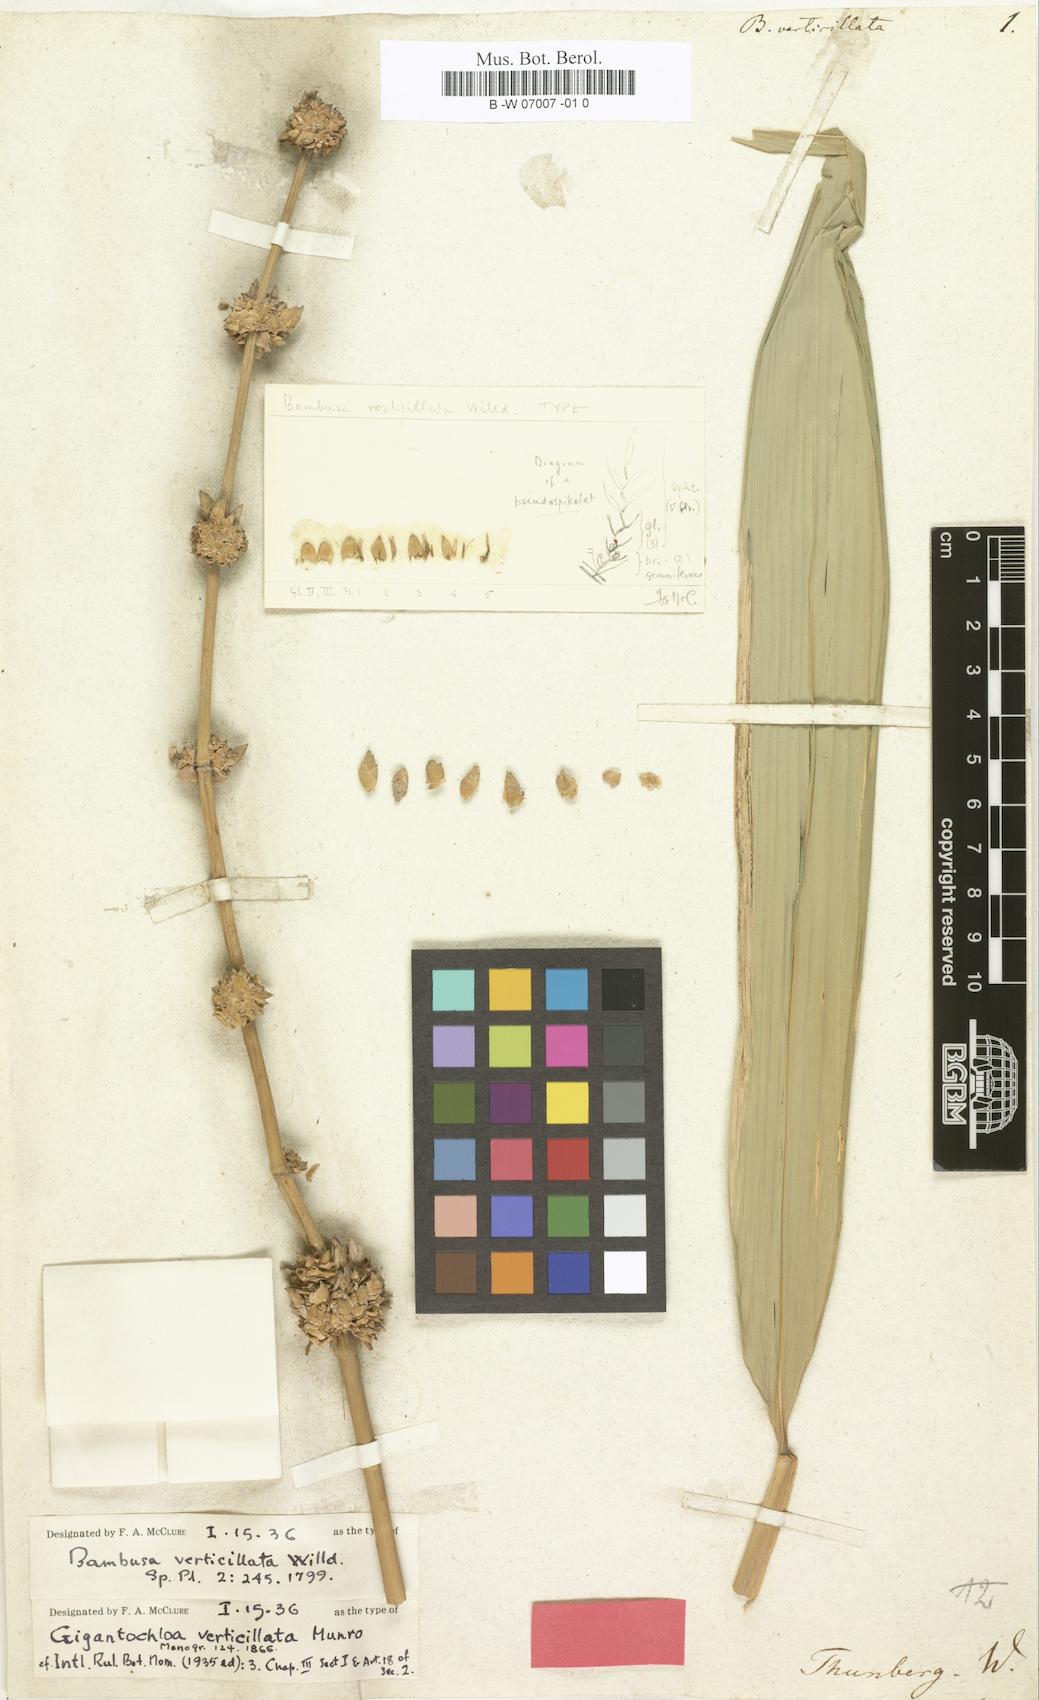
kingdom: Plantae
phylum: Tracheophyta
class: Liliopsida
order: Poales
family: Poaceae
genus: Gigantochloa
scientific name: Gigantochloa verticillata
